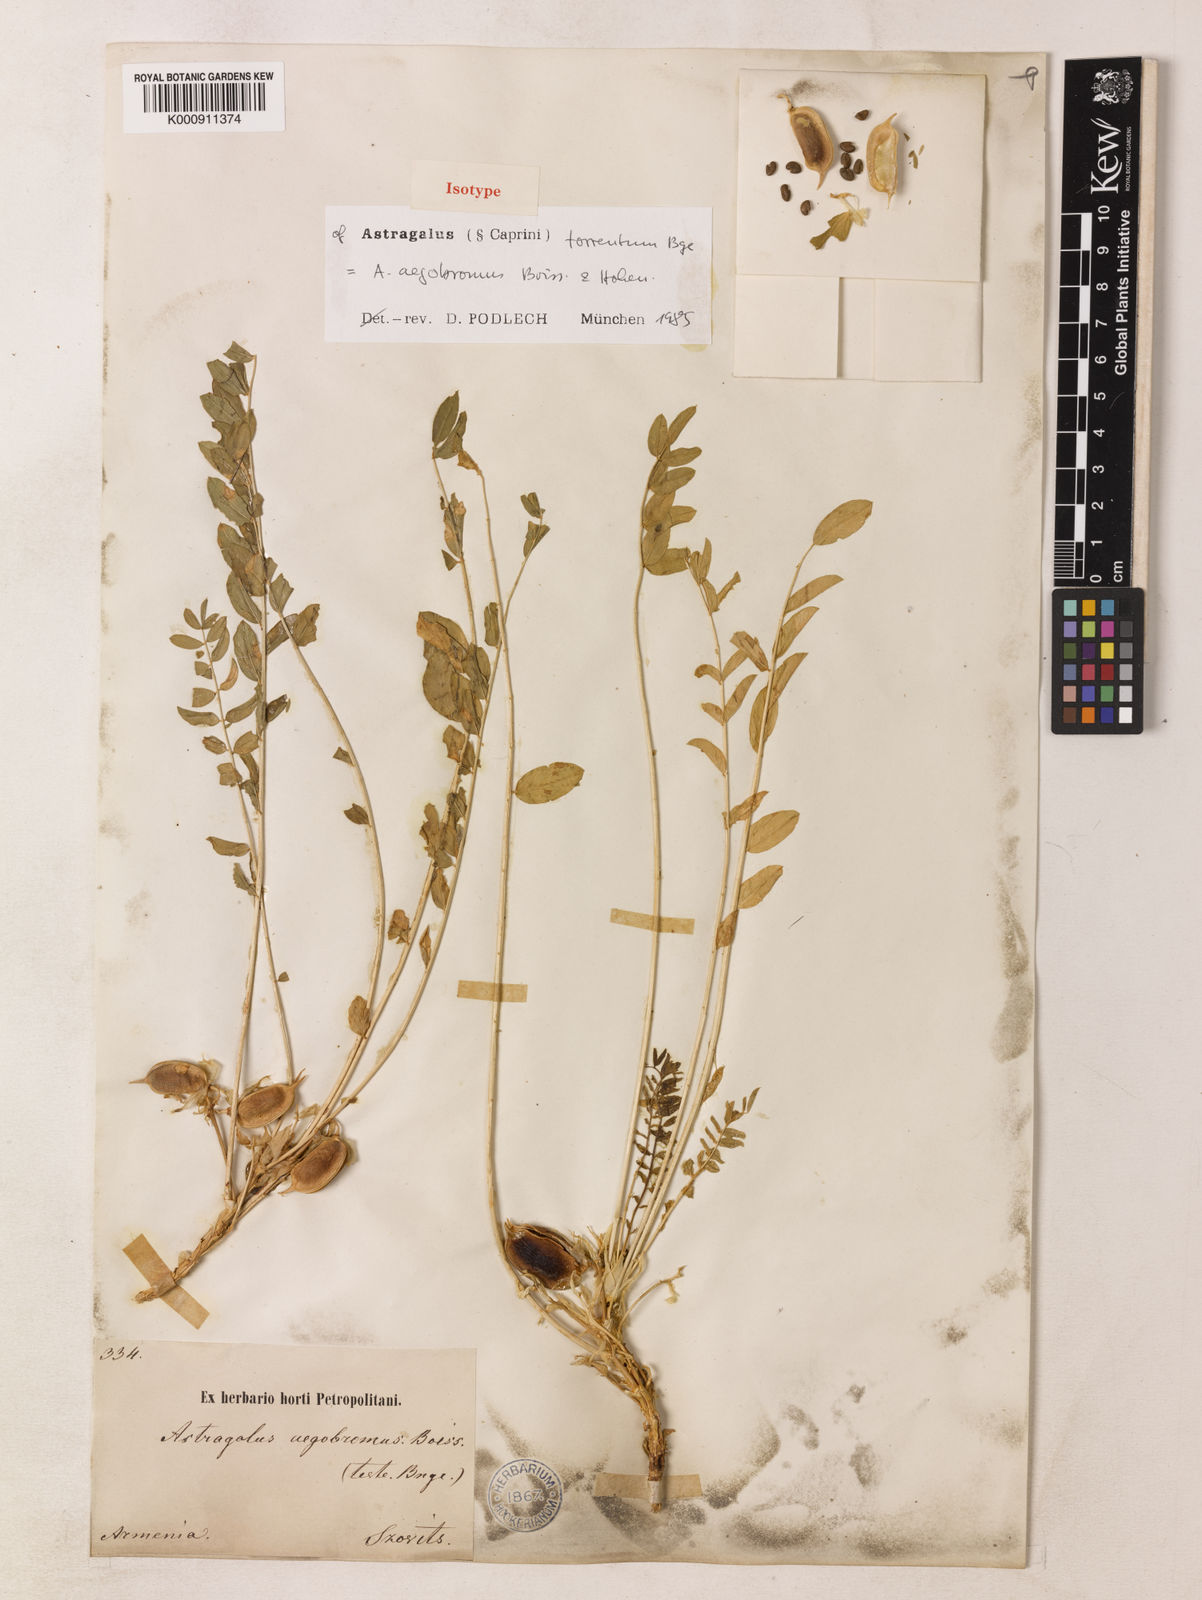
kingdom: Plantae
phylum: Tracheophyta
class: Magnoliopsida
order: Fabales
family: Fabaceae
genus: Astragalus
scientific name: Astragalus aegobromus
